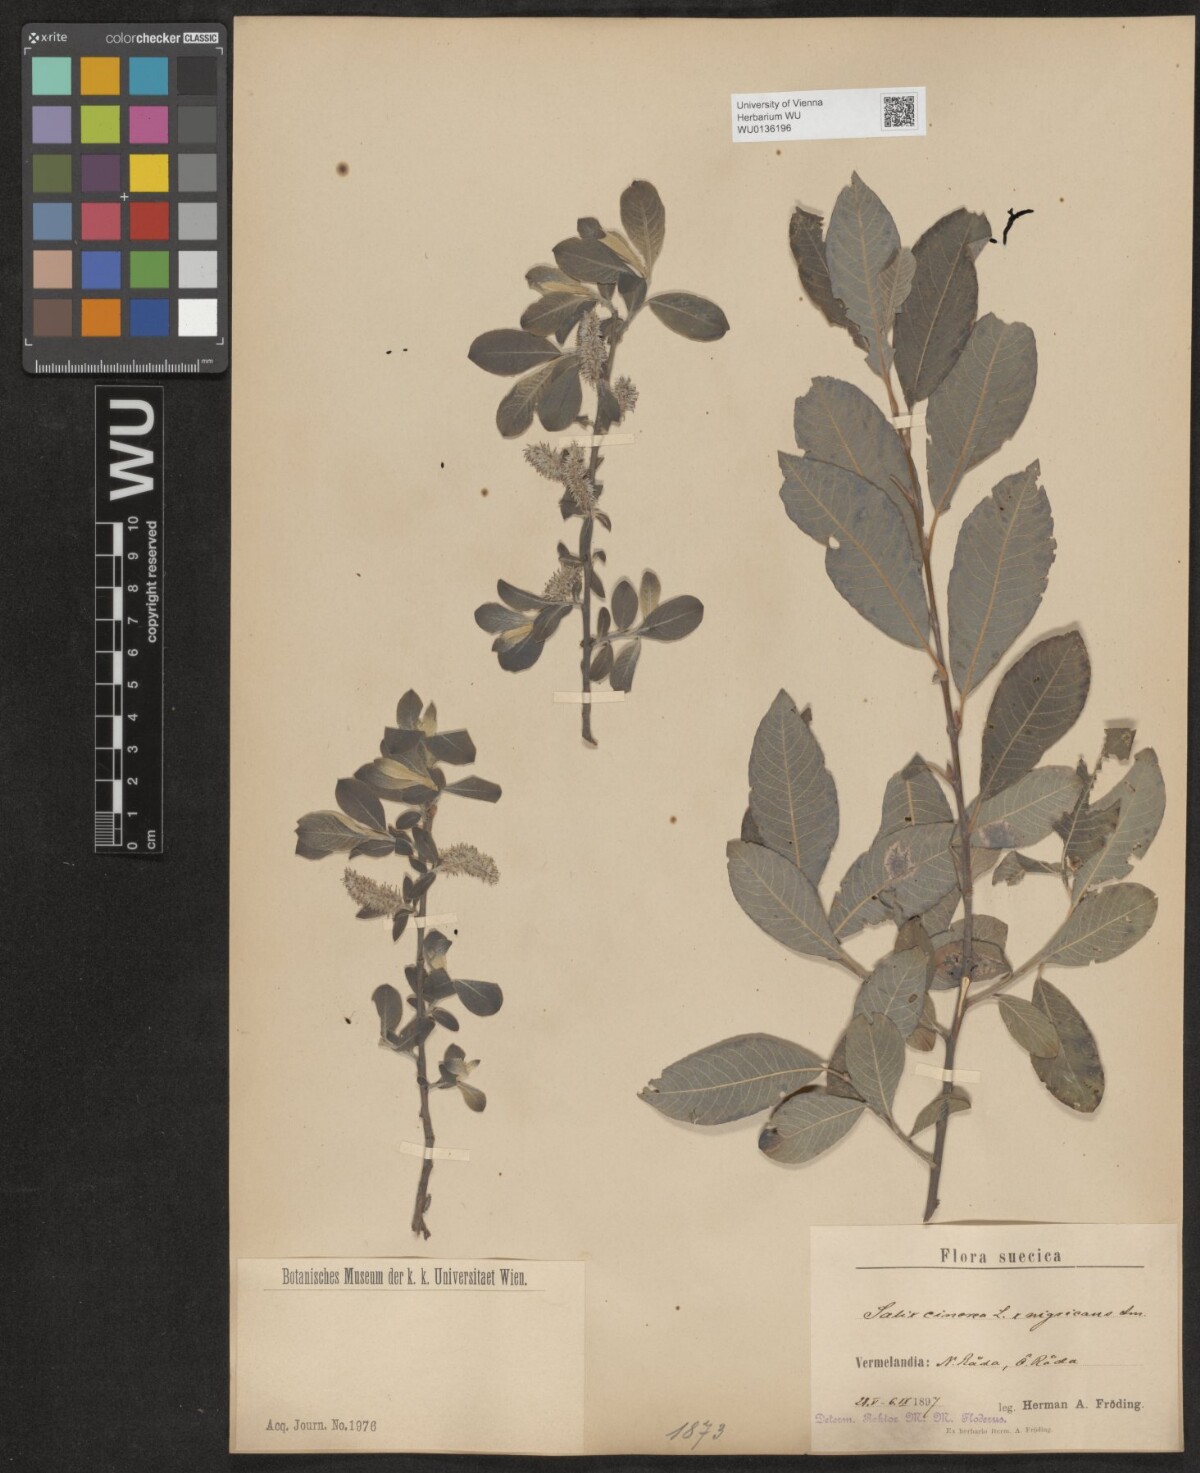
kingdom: Plantae
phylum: Tracheophyta
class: Magnoliopsida
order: Malpighiales
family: Salicaceae
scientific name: Salicaceae
